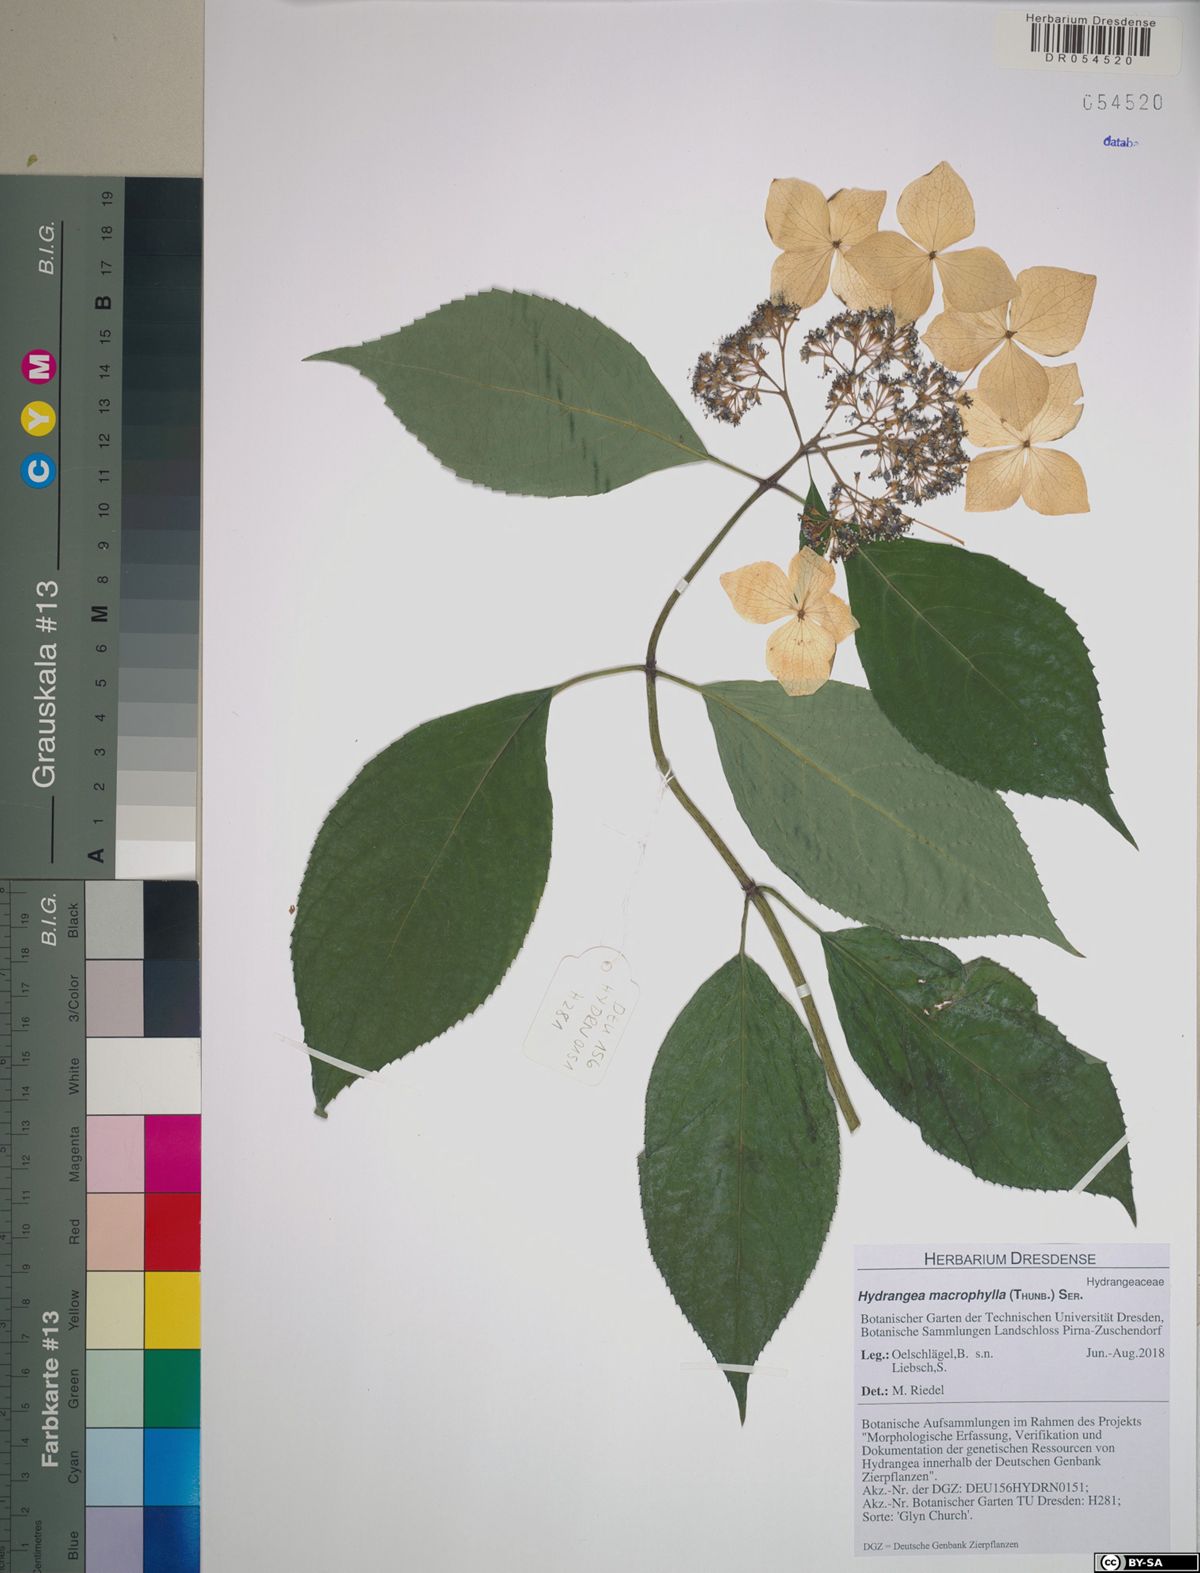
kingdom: Plantae
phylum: Tracheophyta
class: Magnoliopsida
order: Cornales
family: Hydrangeaceae
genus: Hydrangea
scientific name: Hydrangea macrophylla
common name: Hydrangea
